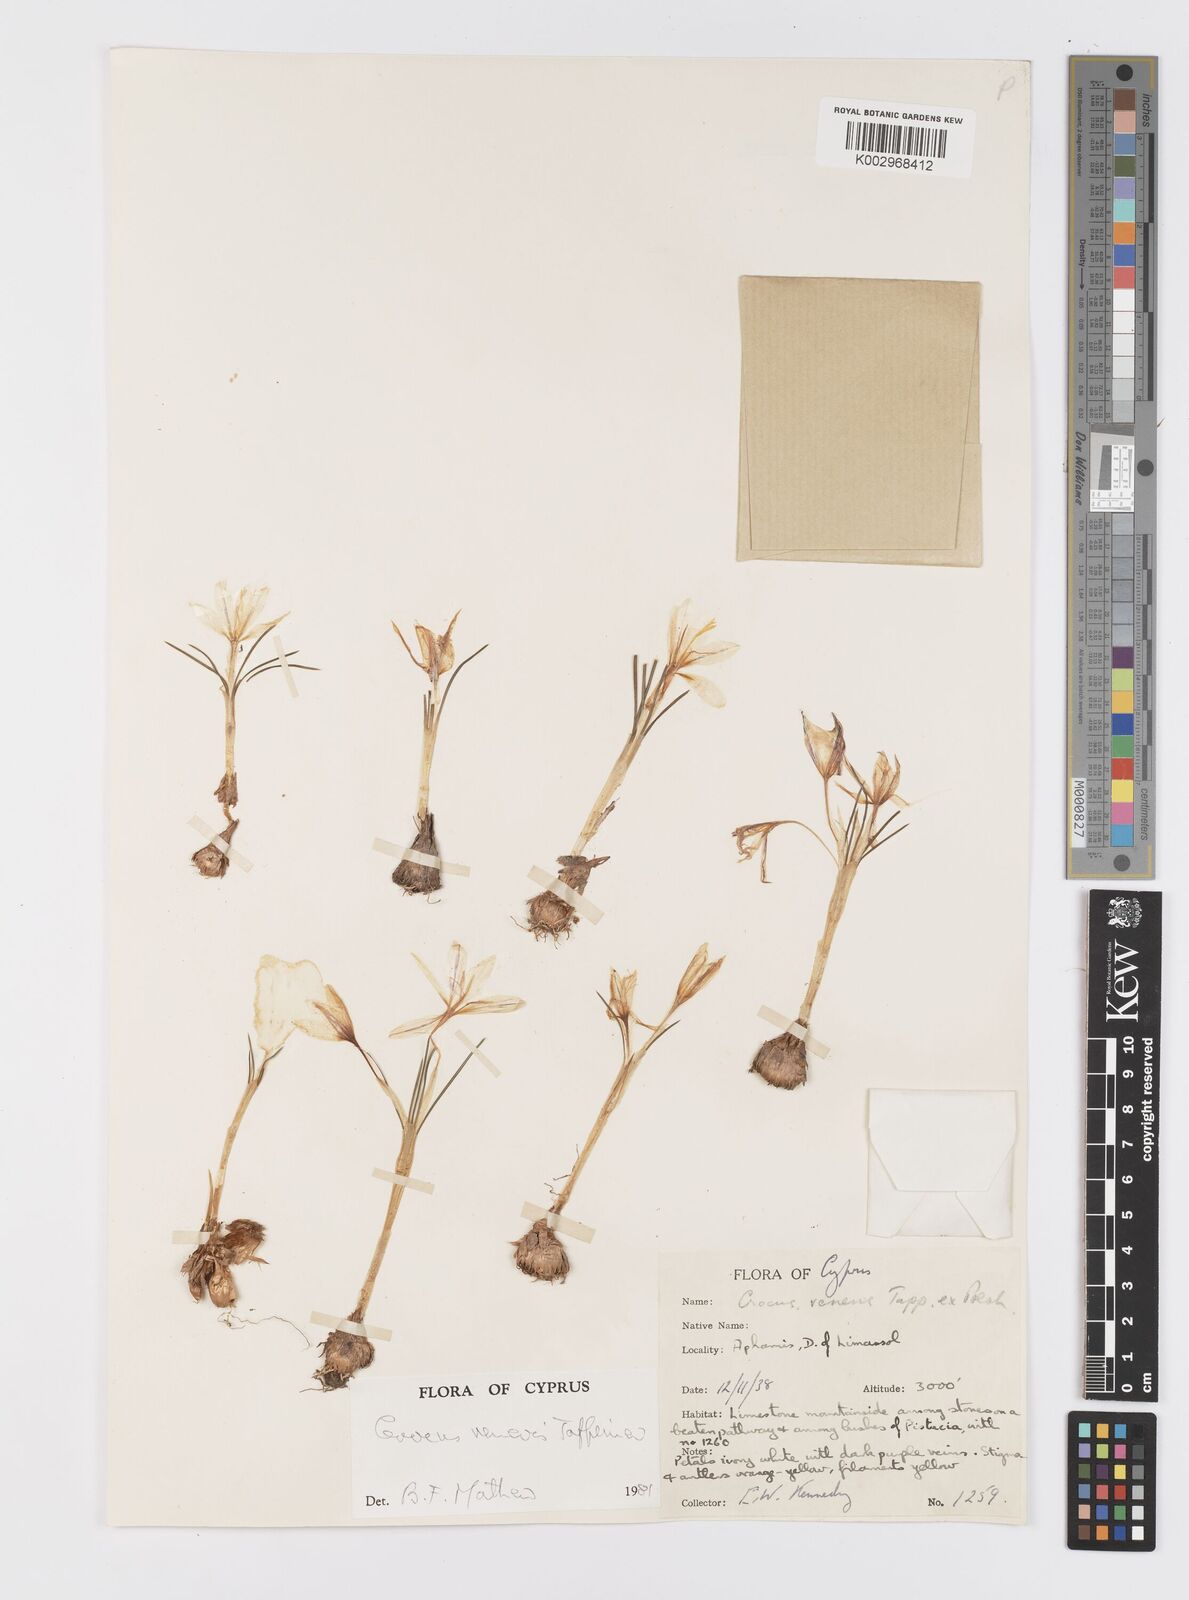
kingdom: Plantae
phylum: Tracheophyta
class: Liliopsida
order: Asparagales
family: Iridaceae
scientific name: Iridaceae
